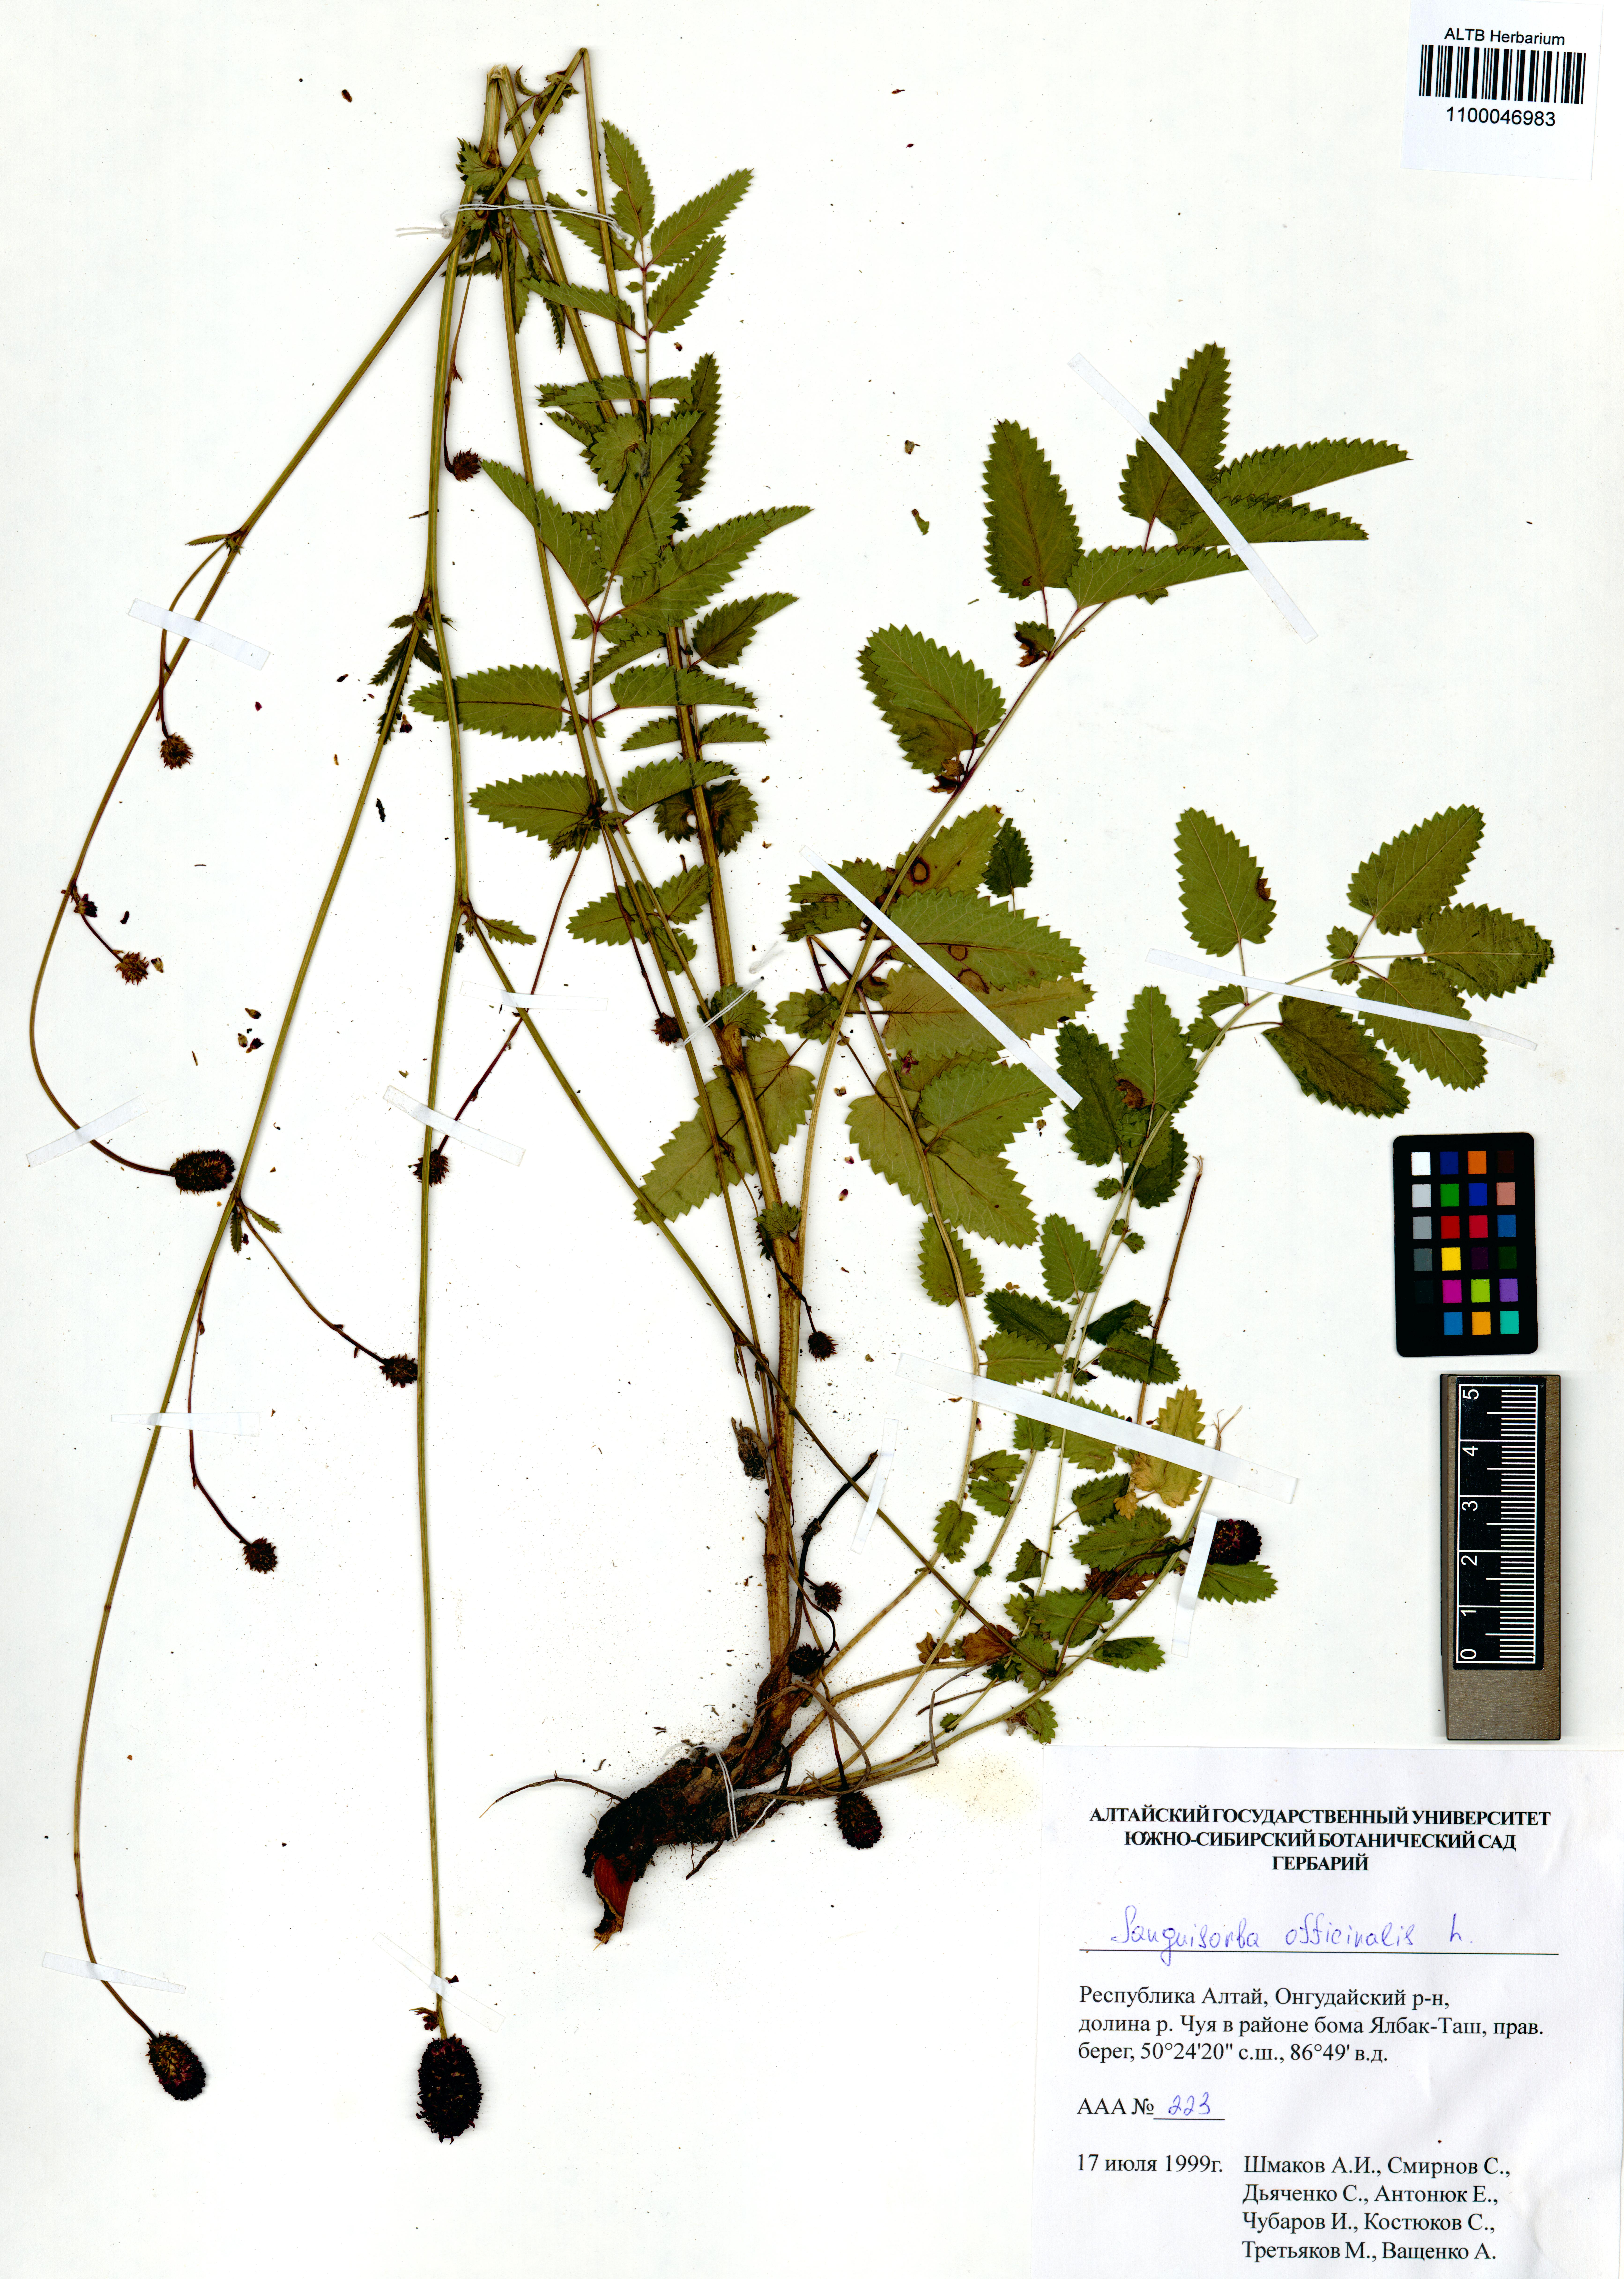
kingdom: Plantae
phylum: Tracheophyta
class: Magnoliopsida
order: Rosales
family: Rosaceae
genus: Sanguisorba
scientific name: Sanguisorba officinalis
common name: Great burnet
